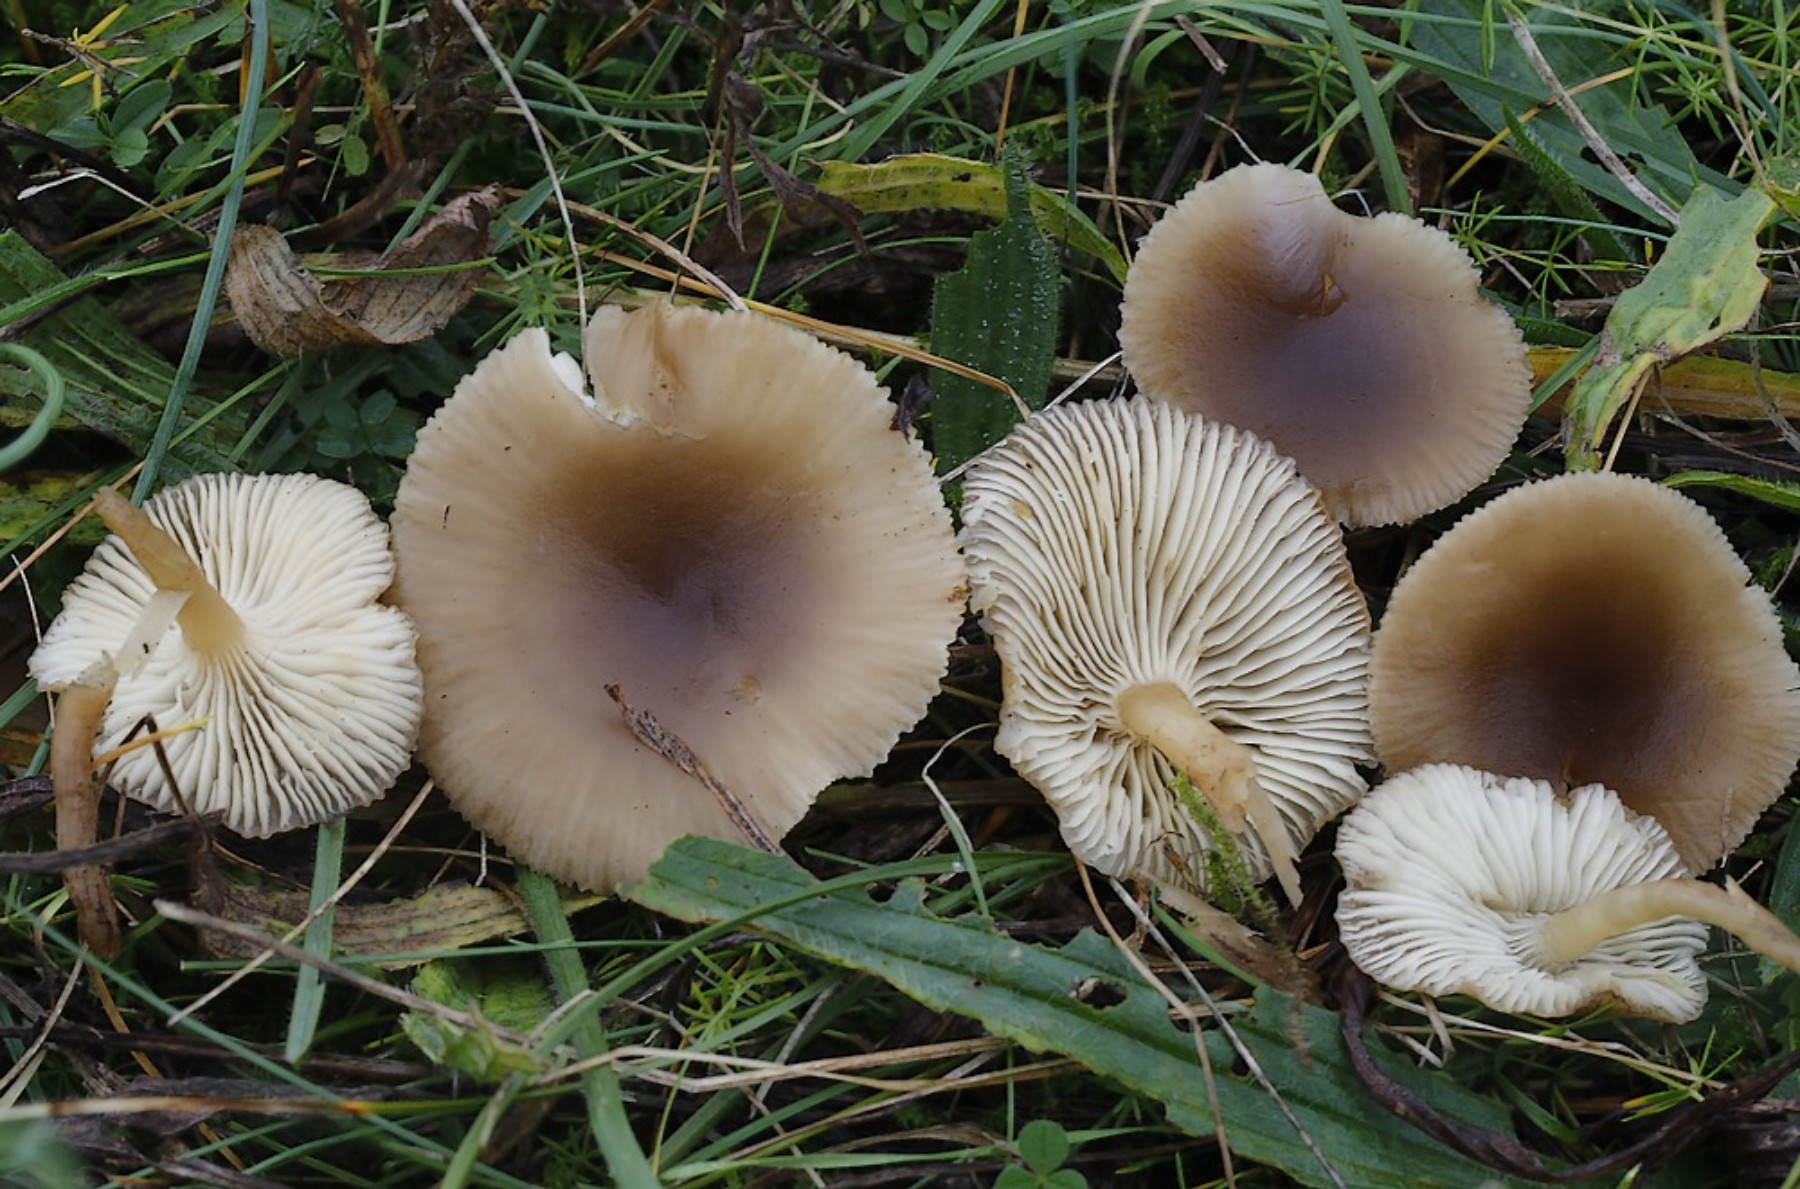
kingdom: Fungi
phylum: Basidiomycota
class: Agaricomycetes
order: Agaricales
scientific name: Agaricales
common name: champignonordenen
